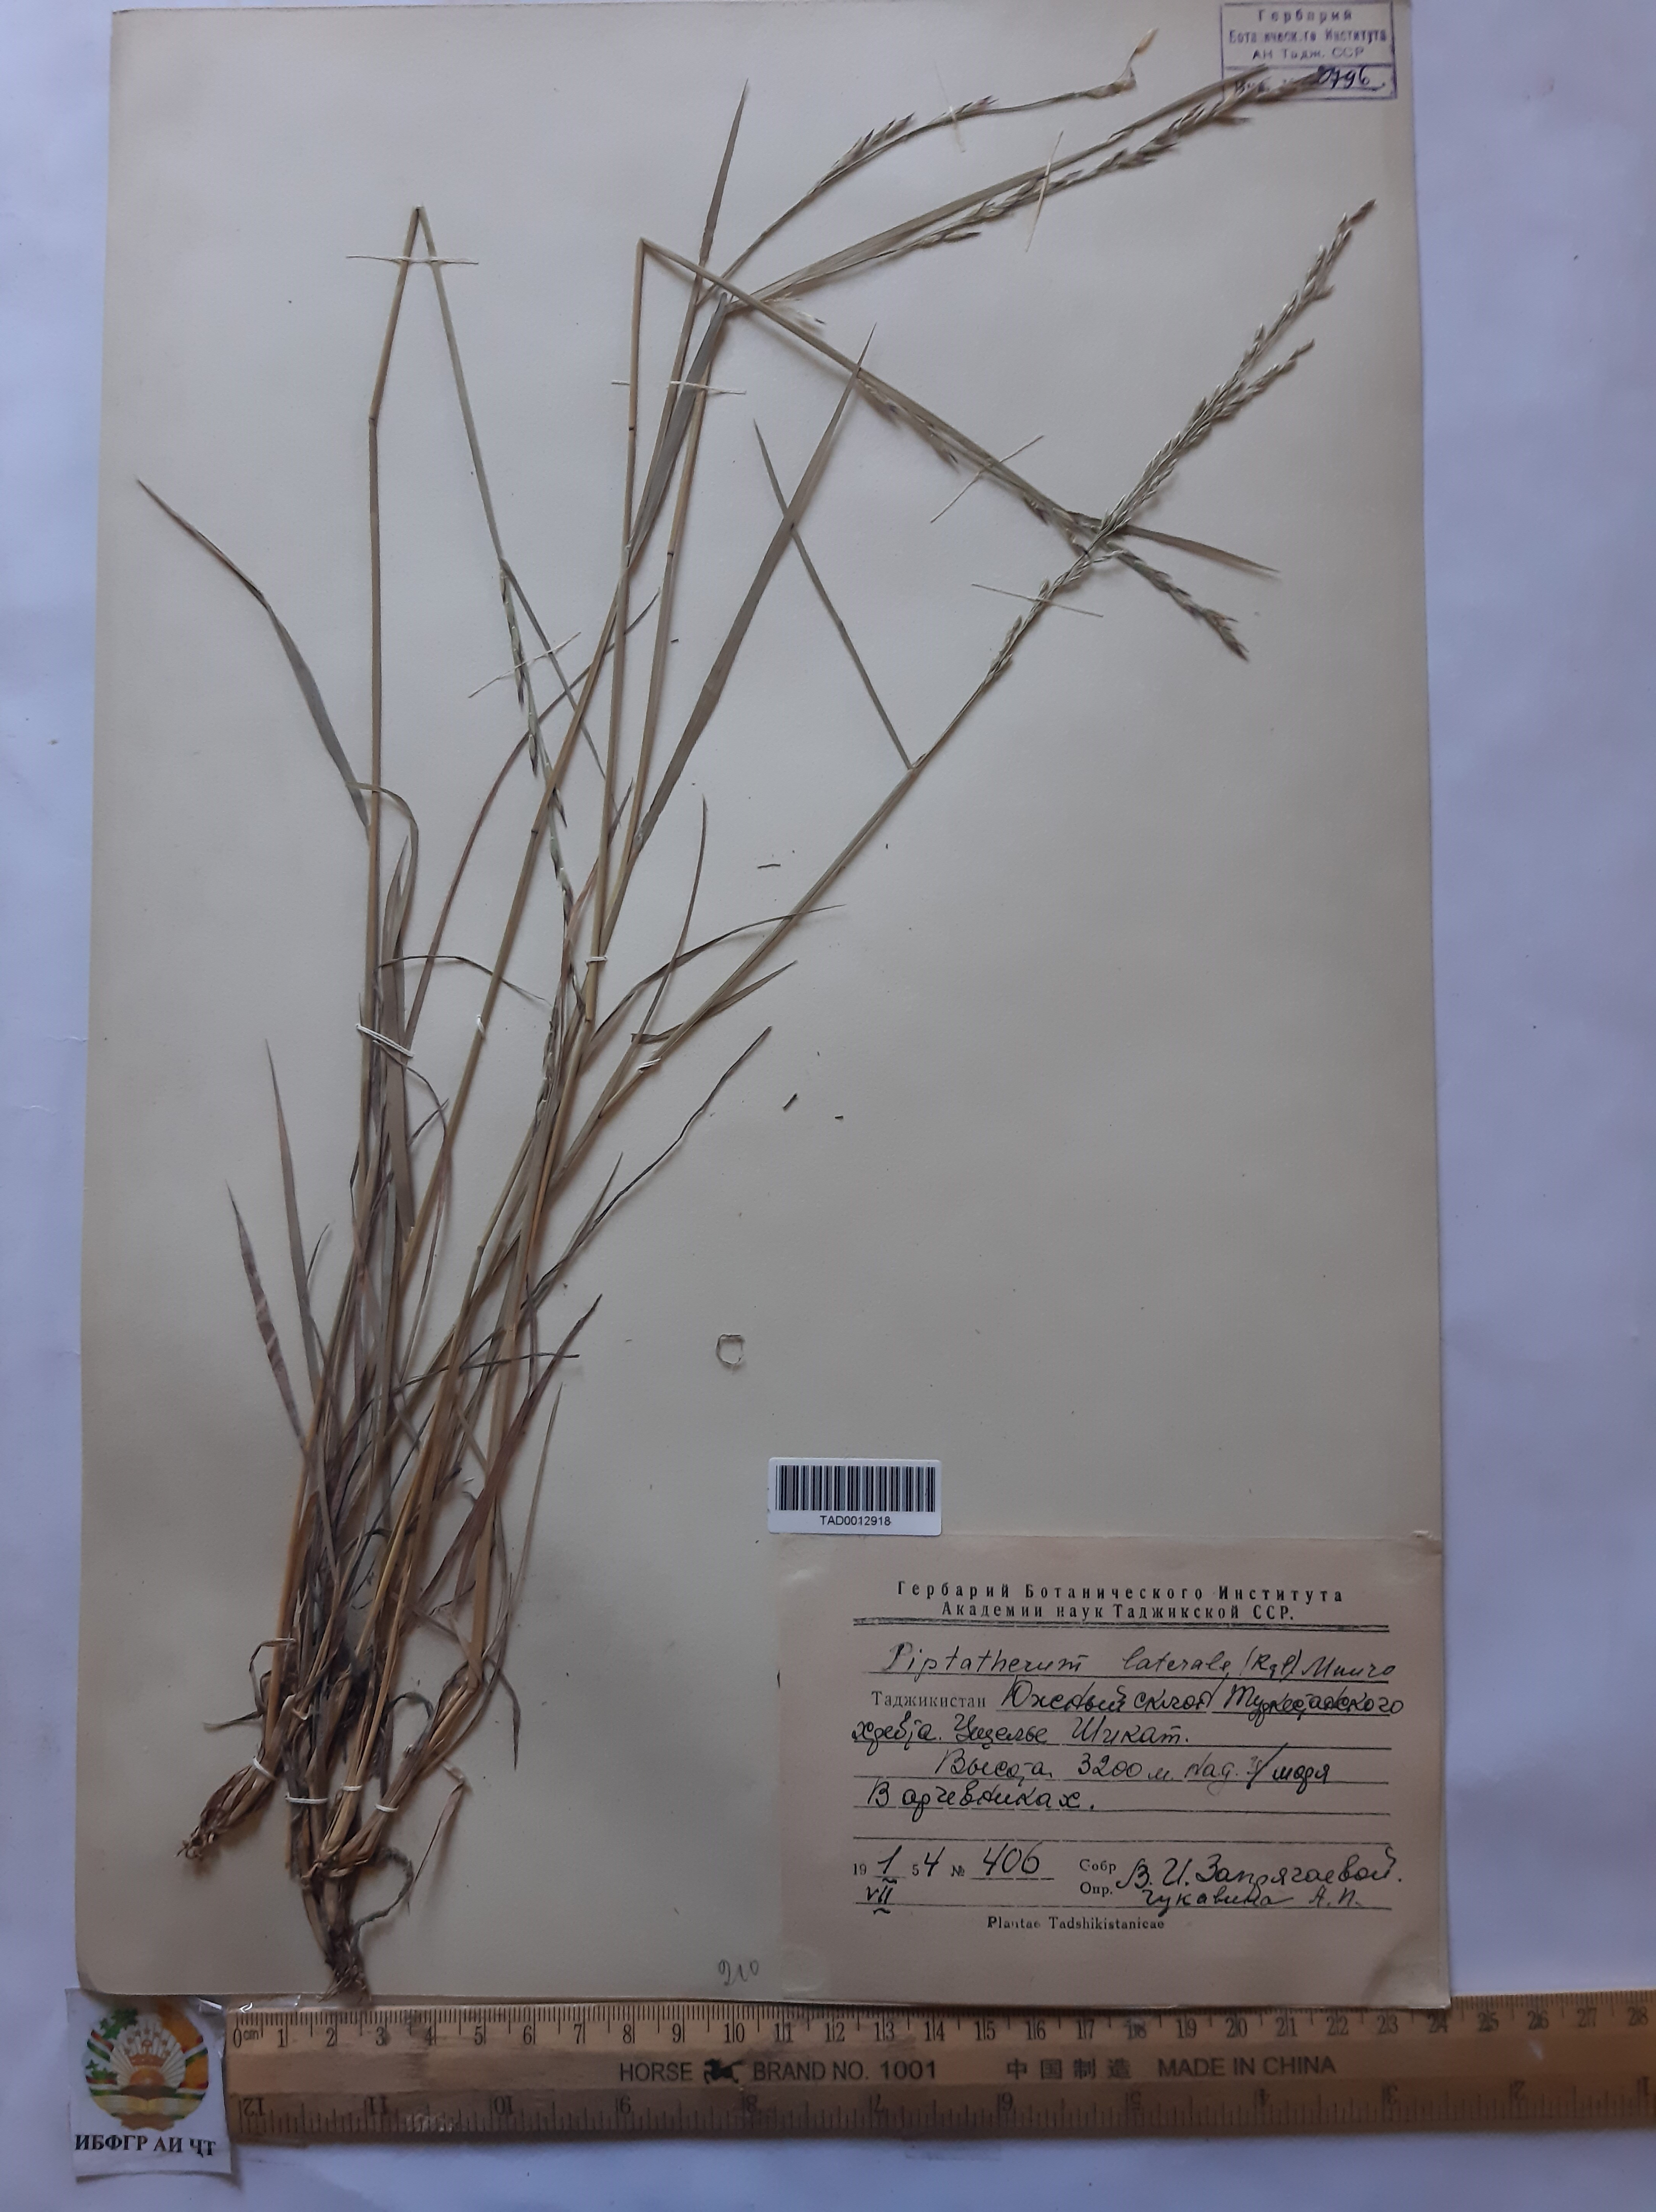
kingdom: Plantae
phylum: Tracheophyta
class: Liliopsida
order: Poales
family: Poaceae
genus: Piptatherum
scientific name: Piptatherum laterale
